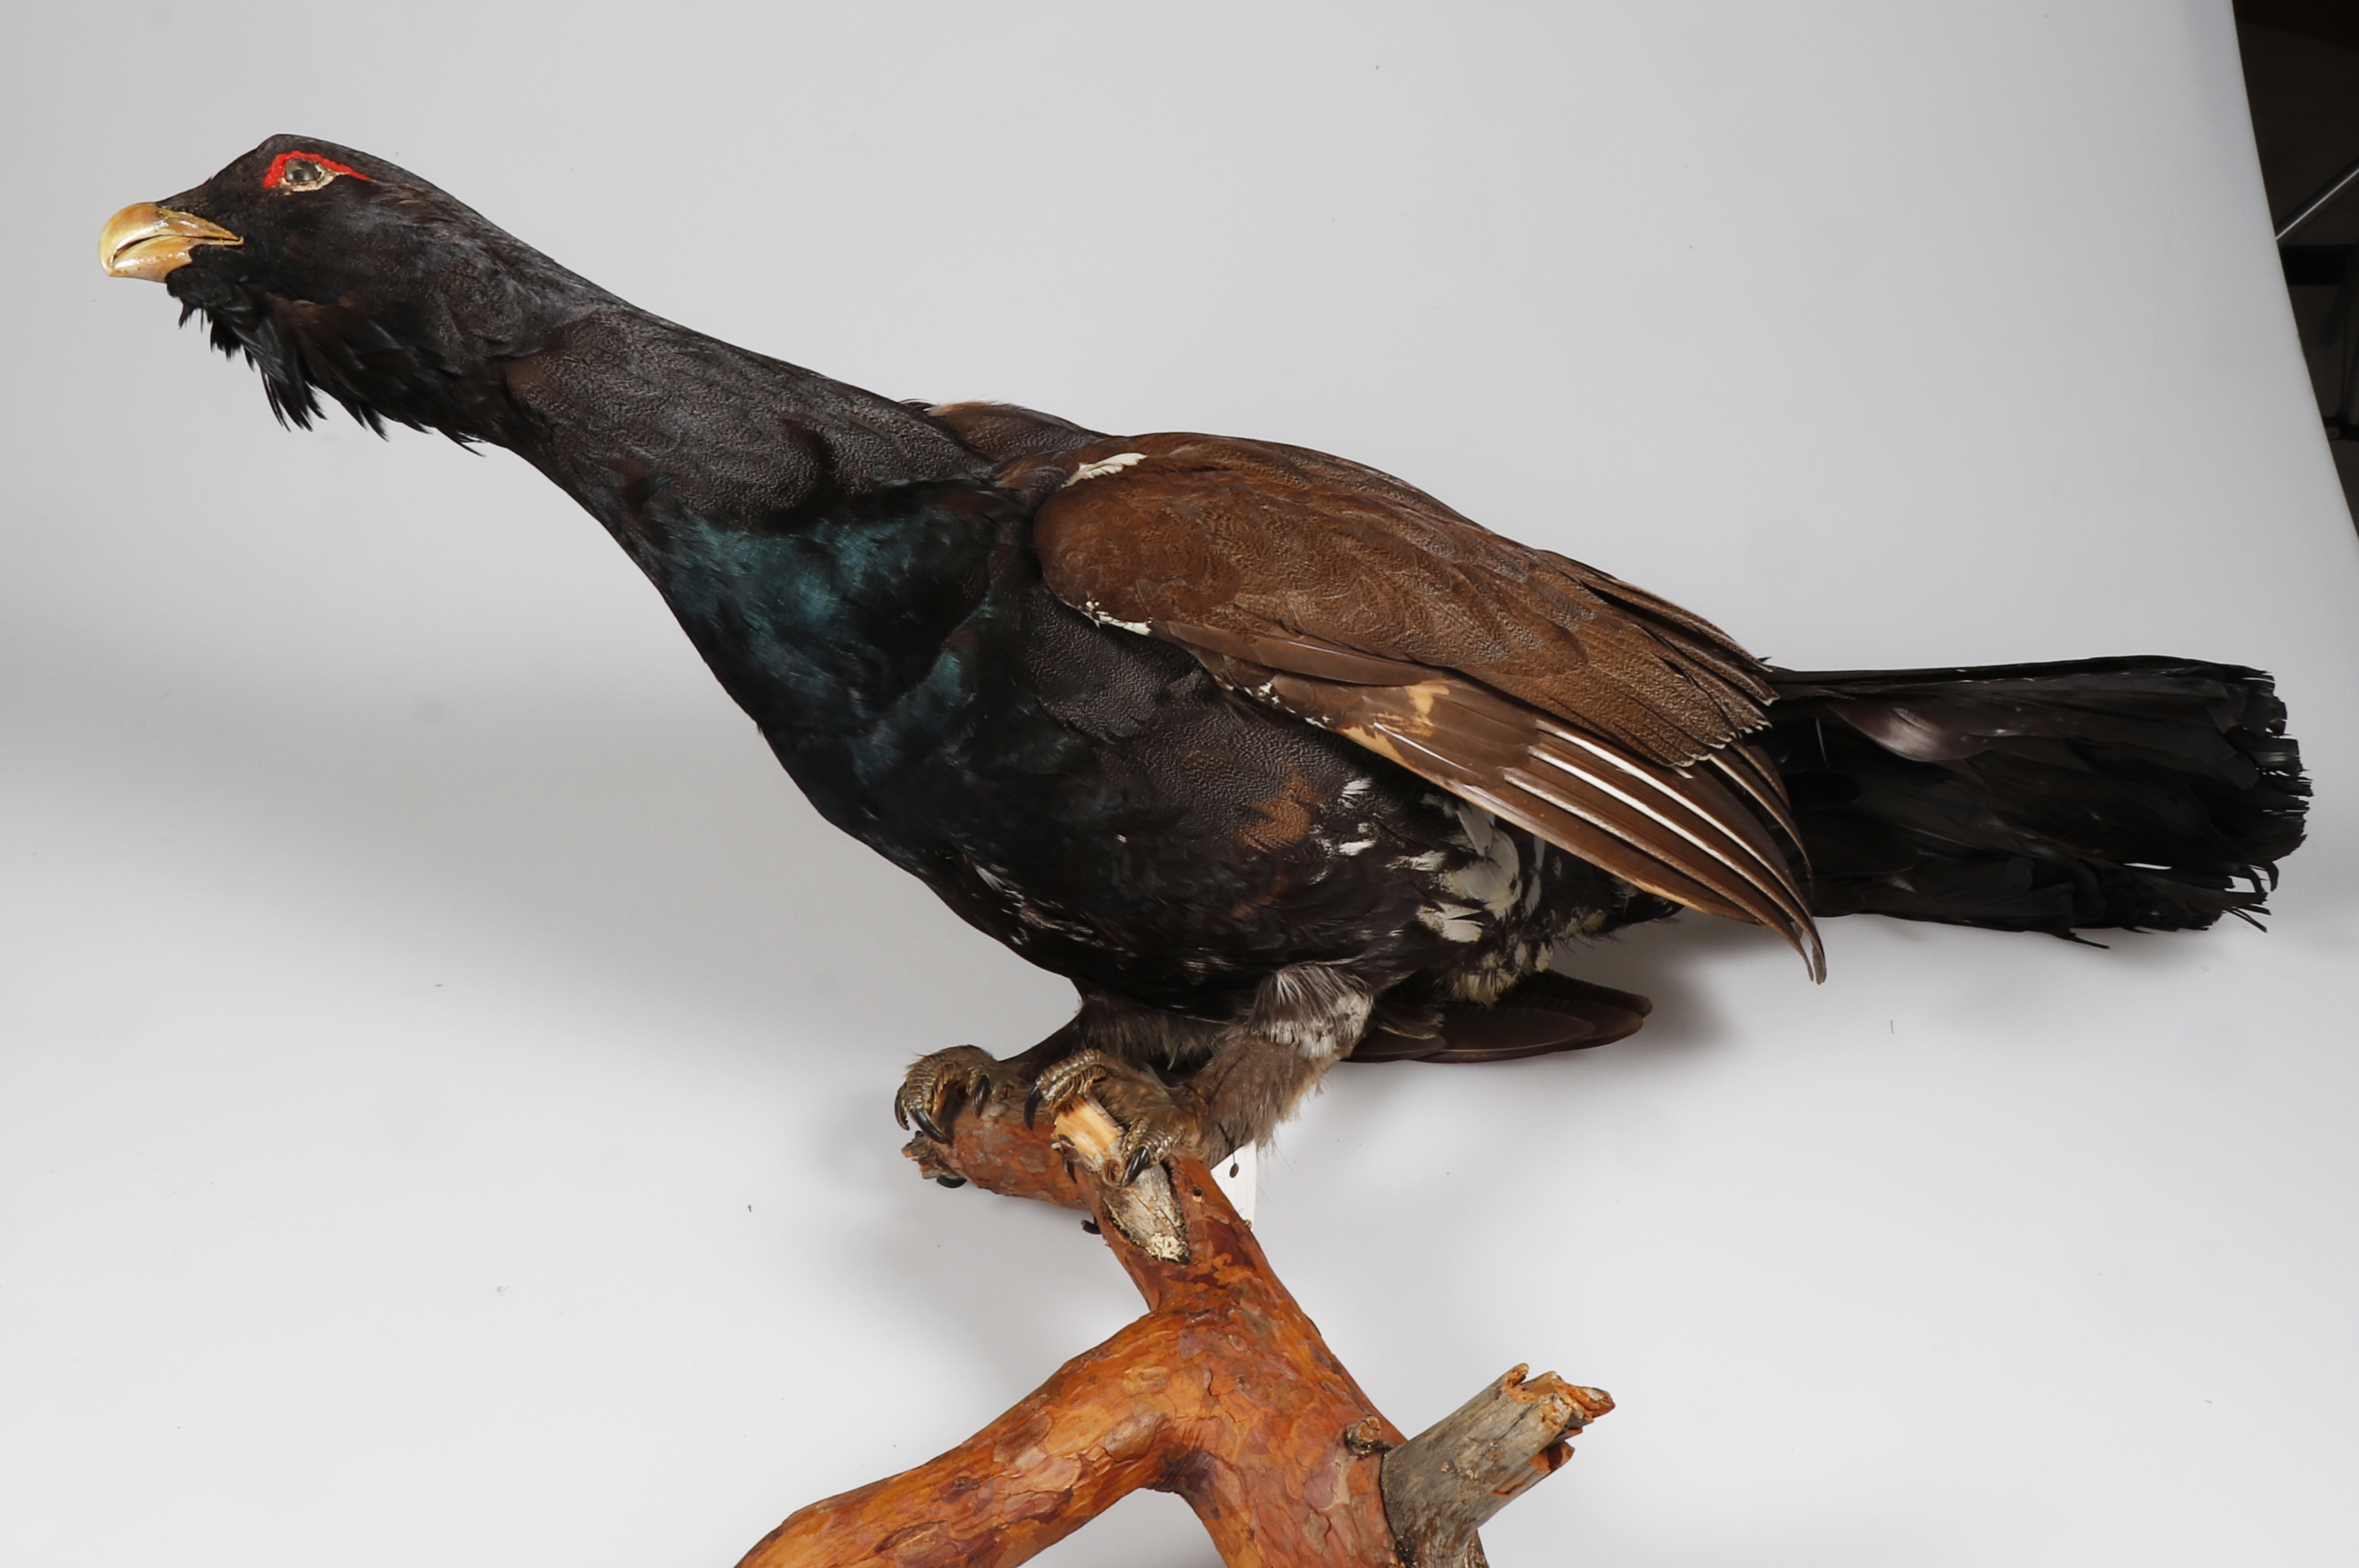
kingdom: Animalia
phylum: Chordata
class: Aves
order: Galliformes
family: Phasianidae
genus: Tetrao
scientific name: Tetrao urogallus
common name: Western capercaillie
